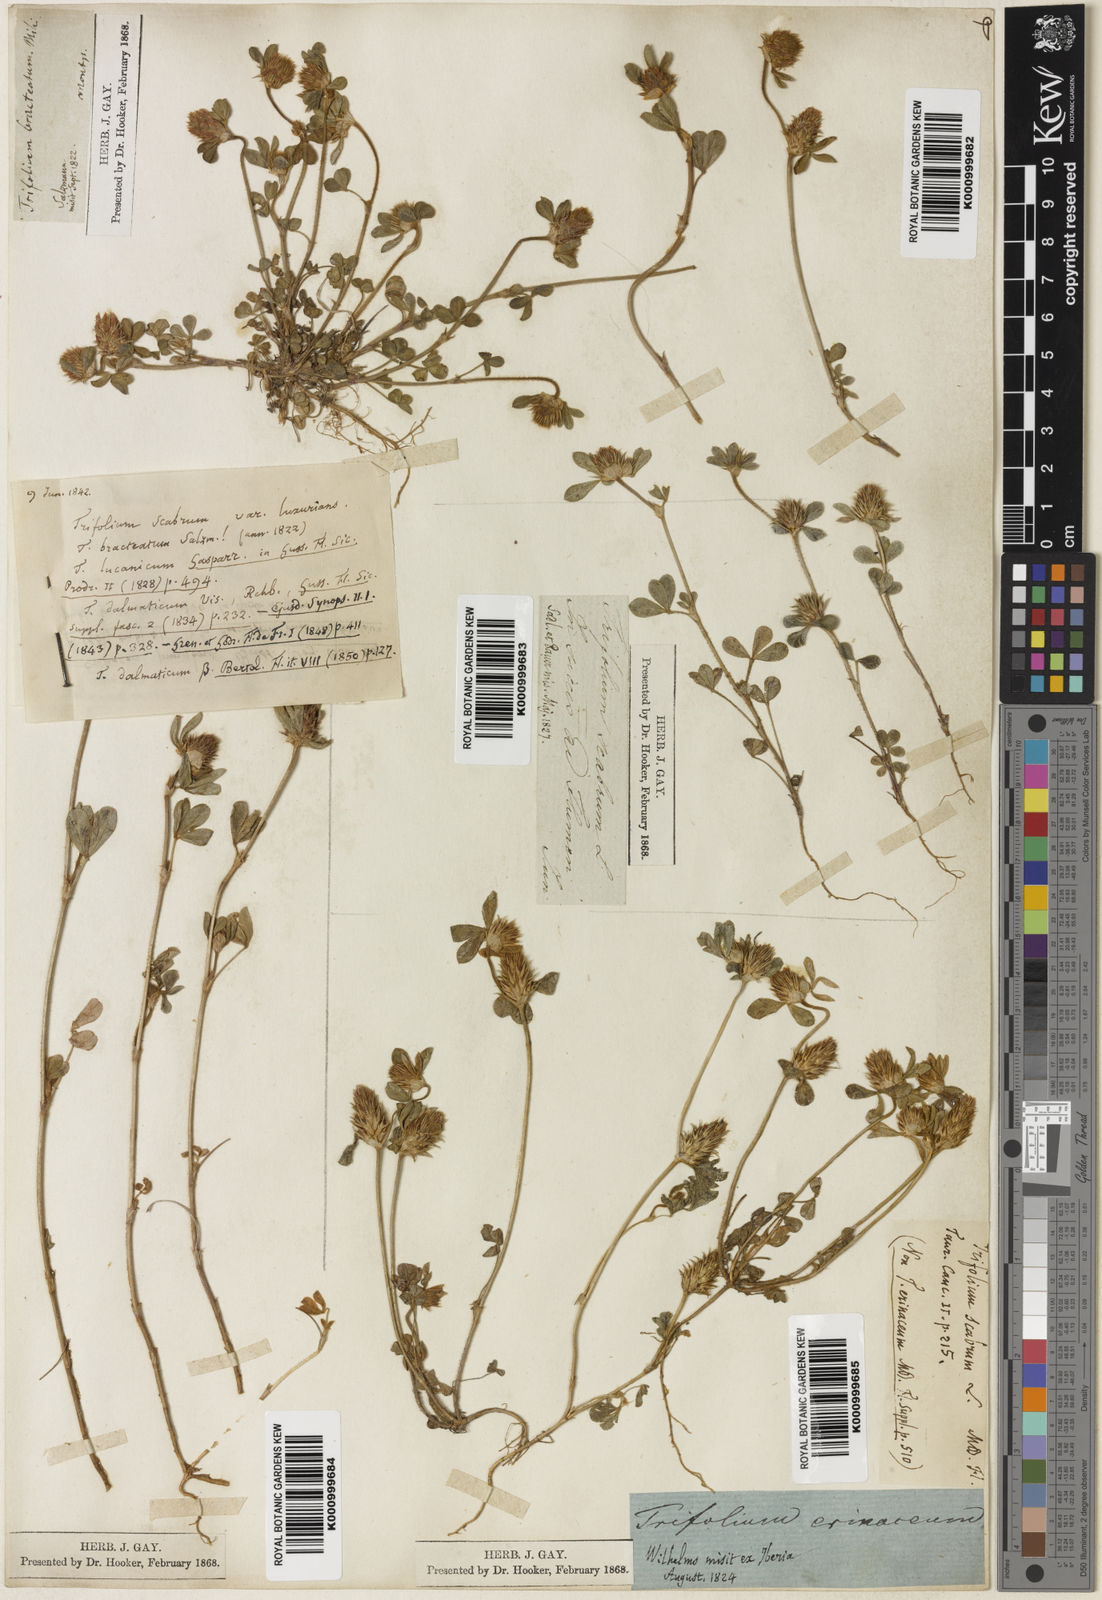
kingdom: Plantae
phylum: Tracheophyta
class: Magnoliopsida
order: Fabales
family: Fabaceae
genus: Trifolium
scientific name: Trifolium scabrum
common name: Rough clover
